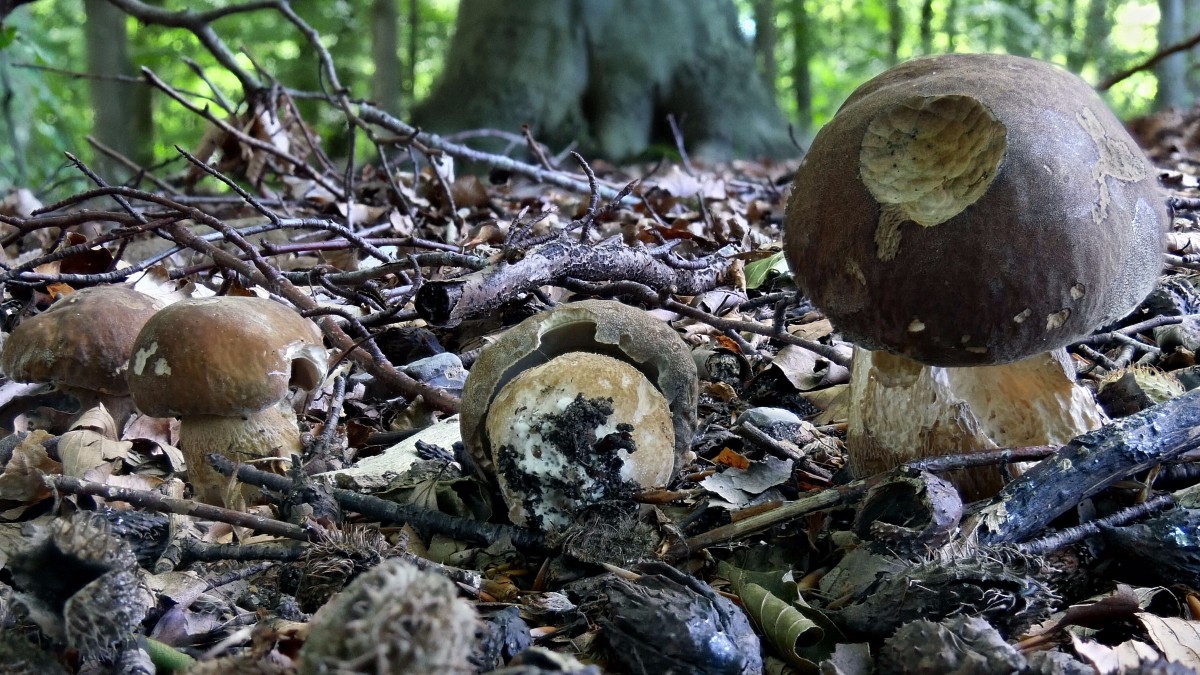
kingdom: Fungi
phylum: Basidiomycota
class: Agaricomycetes
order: Boletales
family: Boletaceae
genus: Boletus
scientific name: Boletus reticulatus
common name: sommer-rørhat
